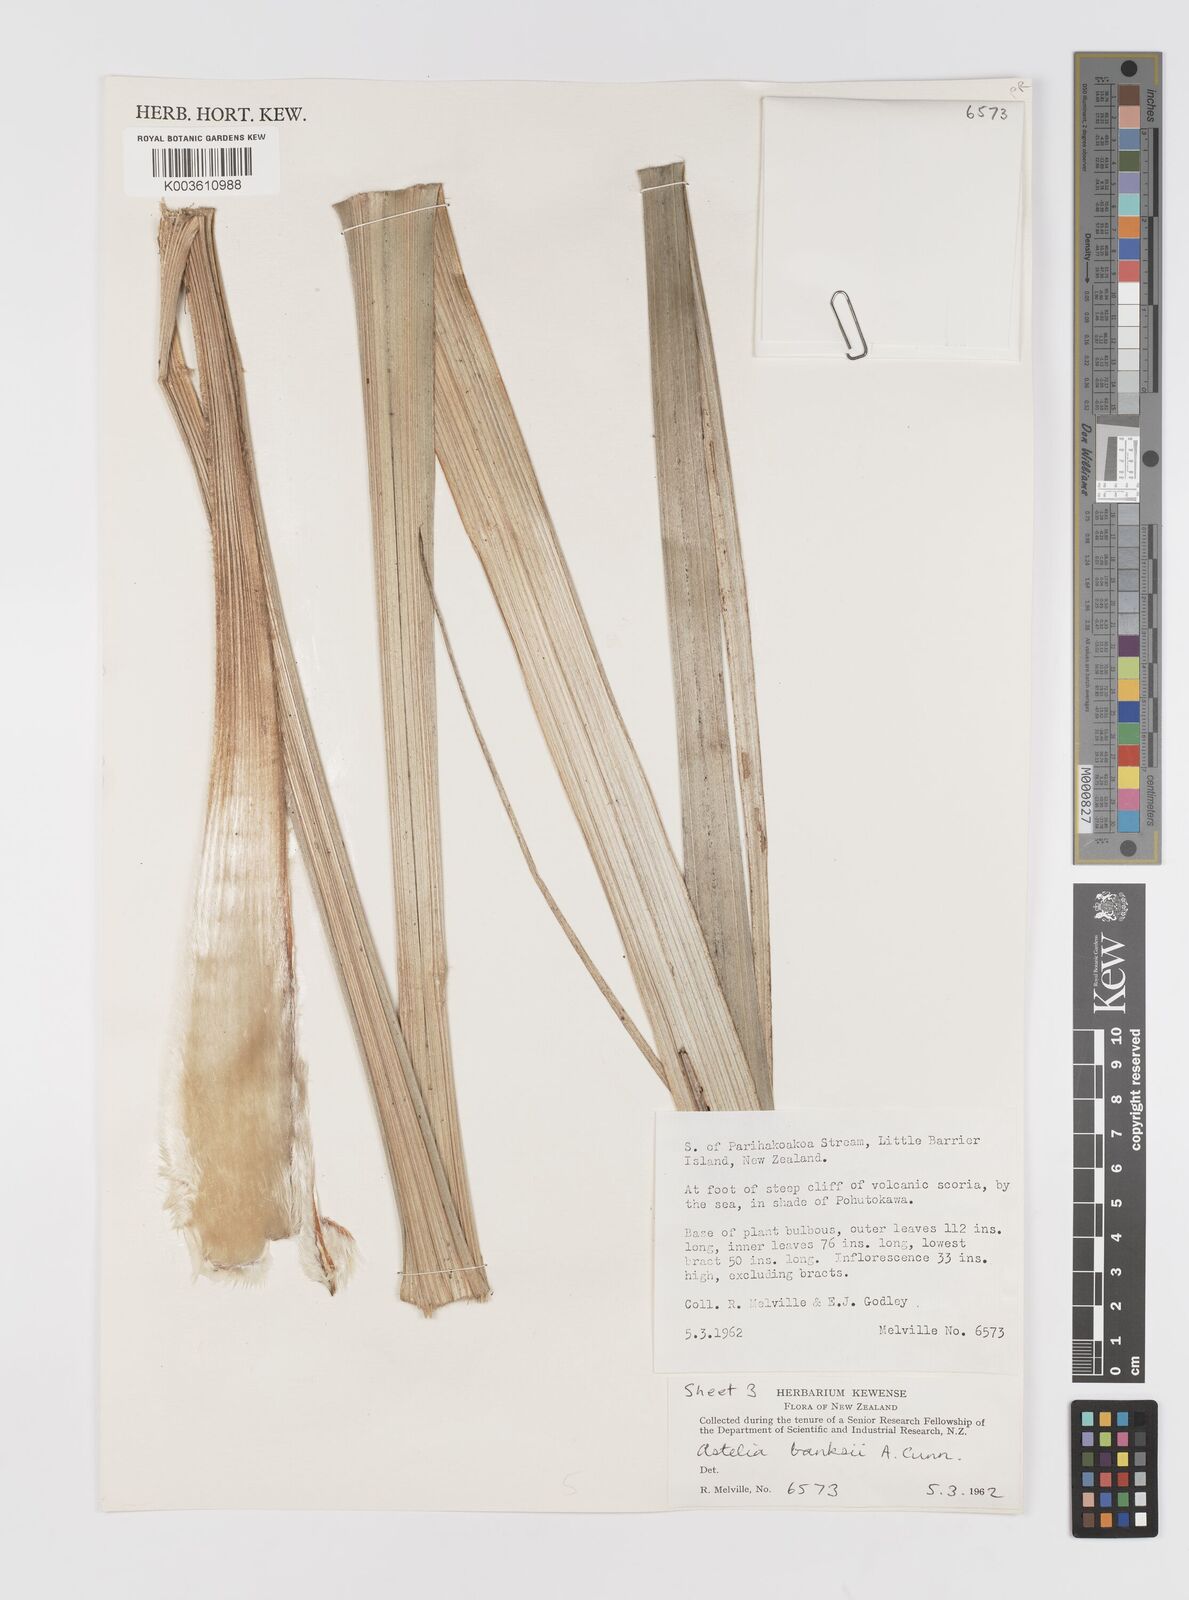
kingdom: Plantae
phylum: Tracheophyta
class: Liliopsida
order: Asparagales
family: Asteliaceae
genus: Astelia
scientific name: Astelia banksii
